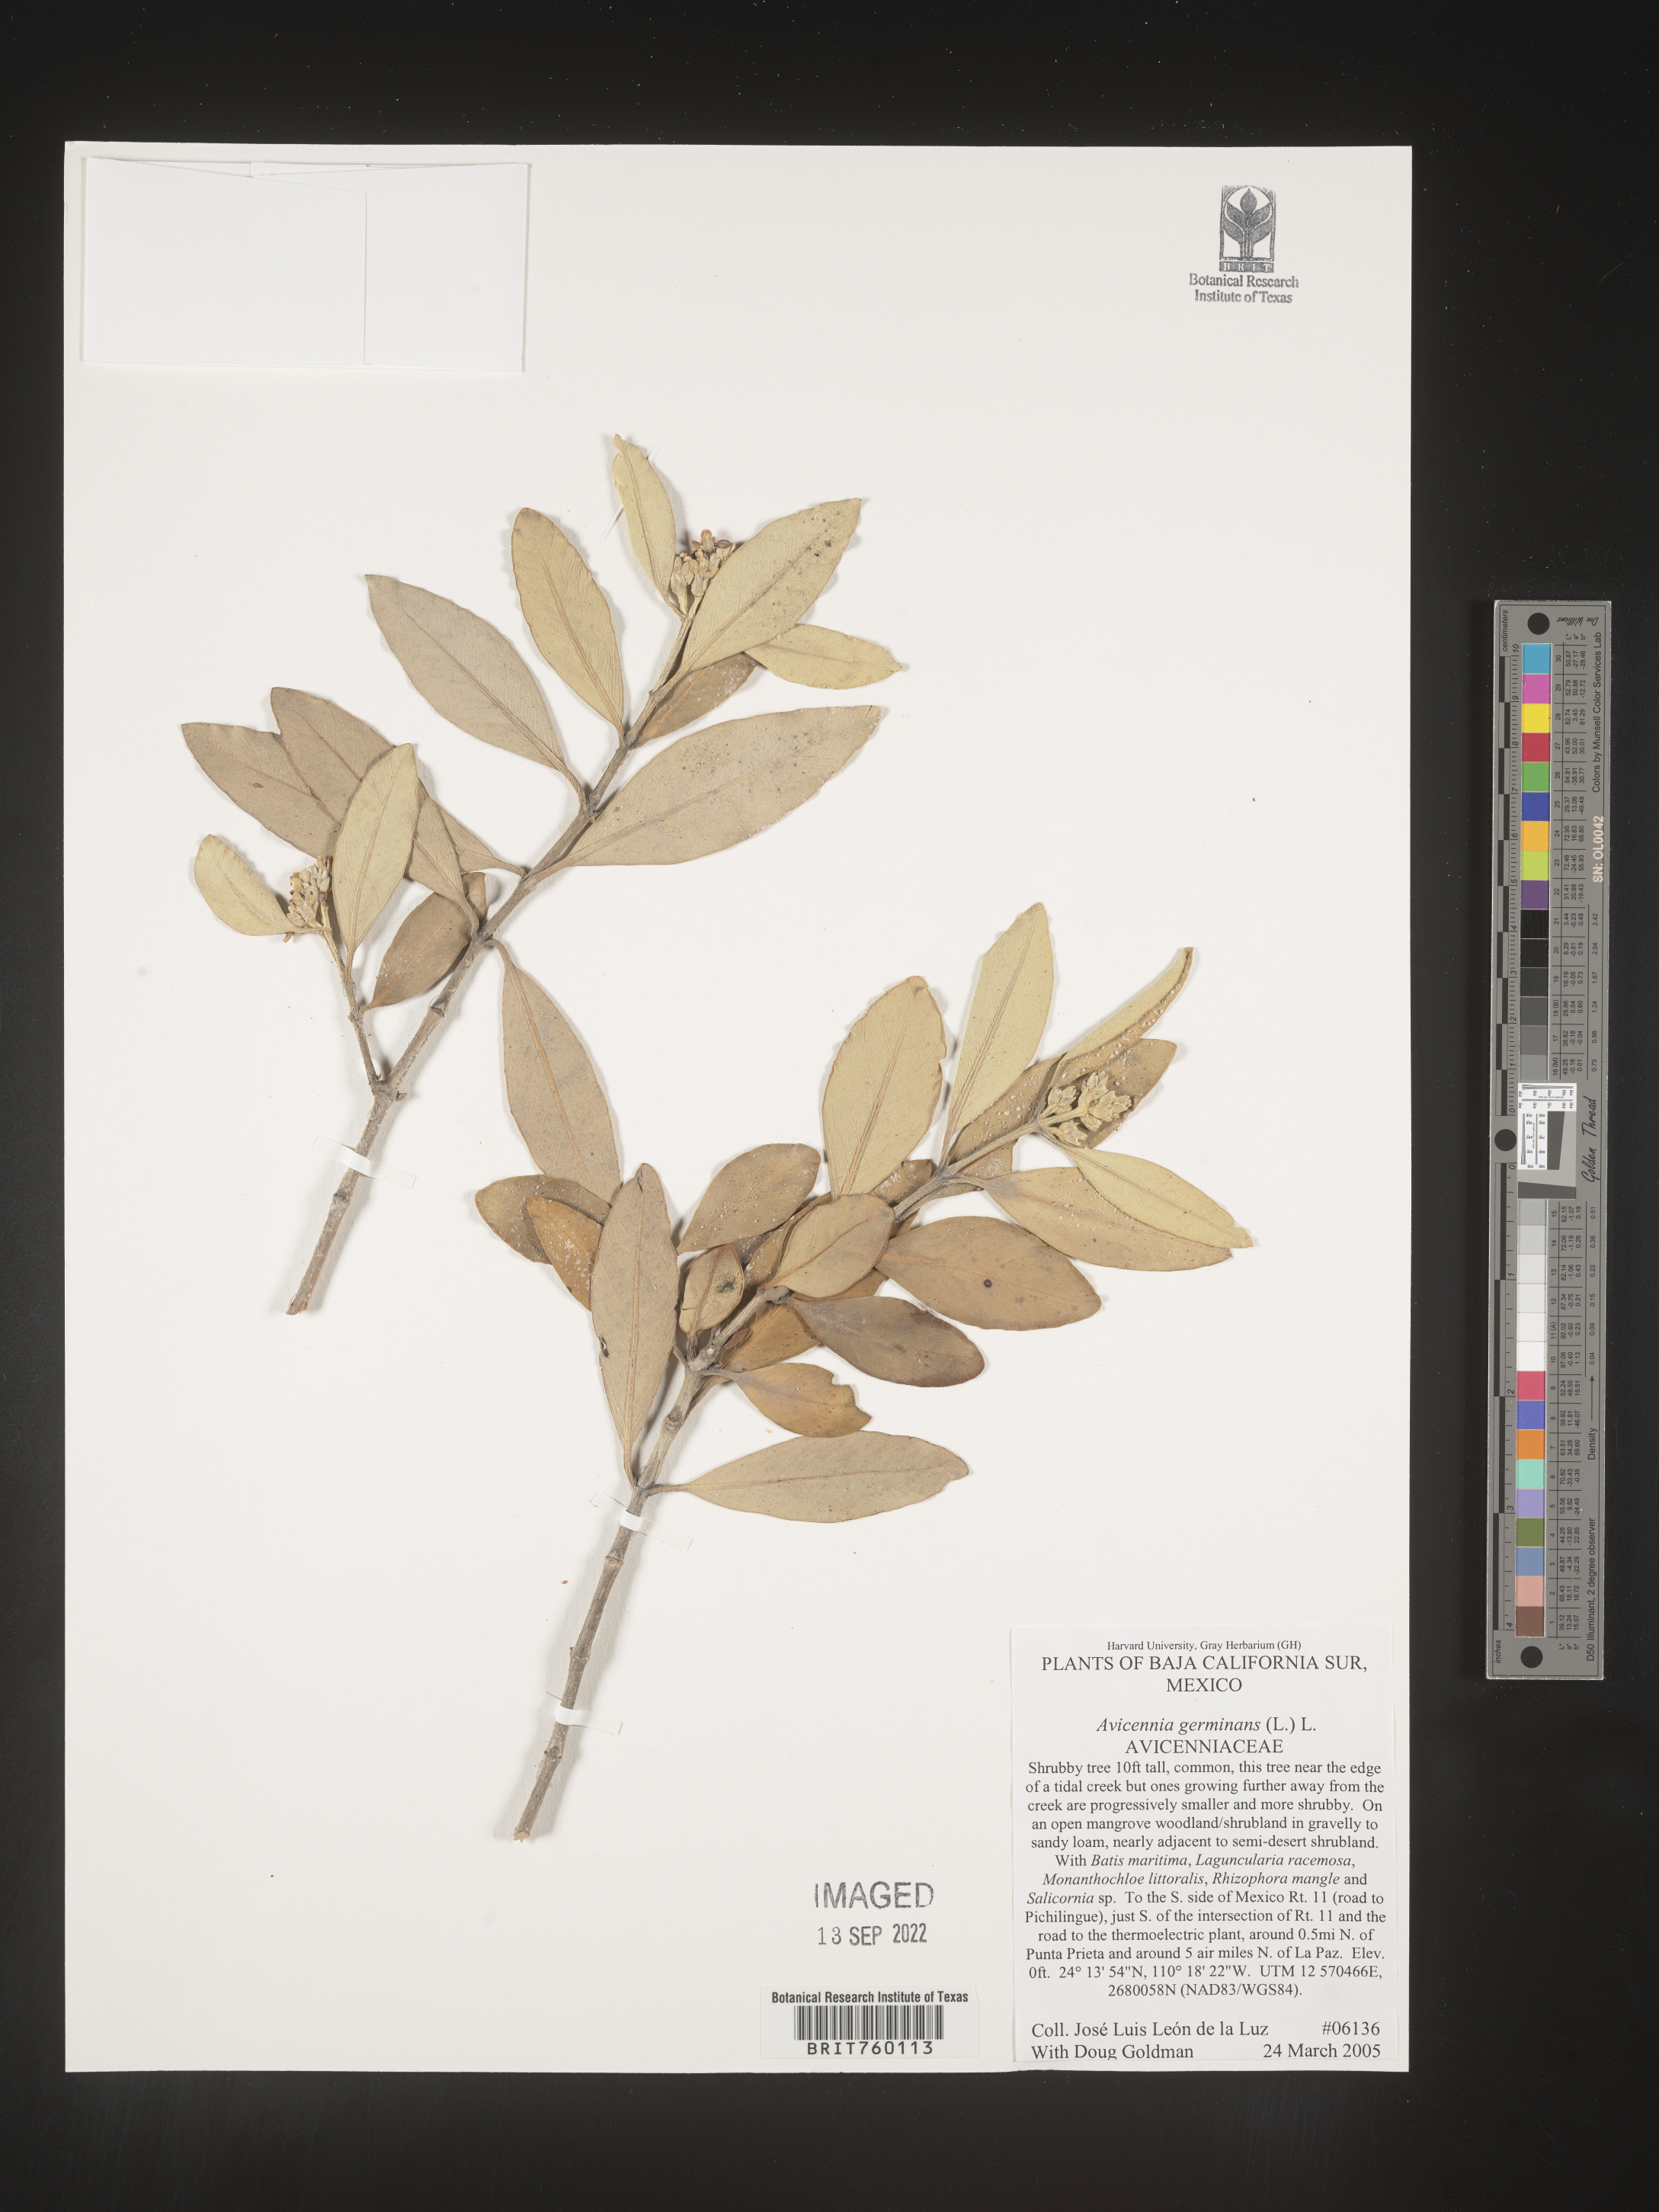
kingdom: Plantae
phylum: Tracheophyta
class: Magnoliopsida
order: Lamiales
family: Acanthaceae
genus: Avicennia
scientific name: Avicennia
